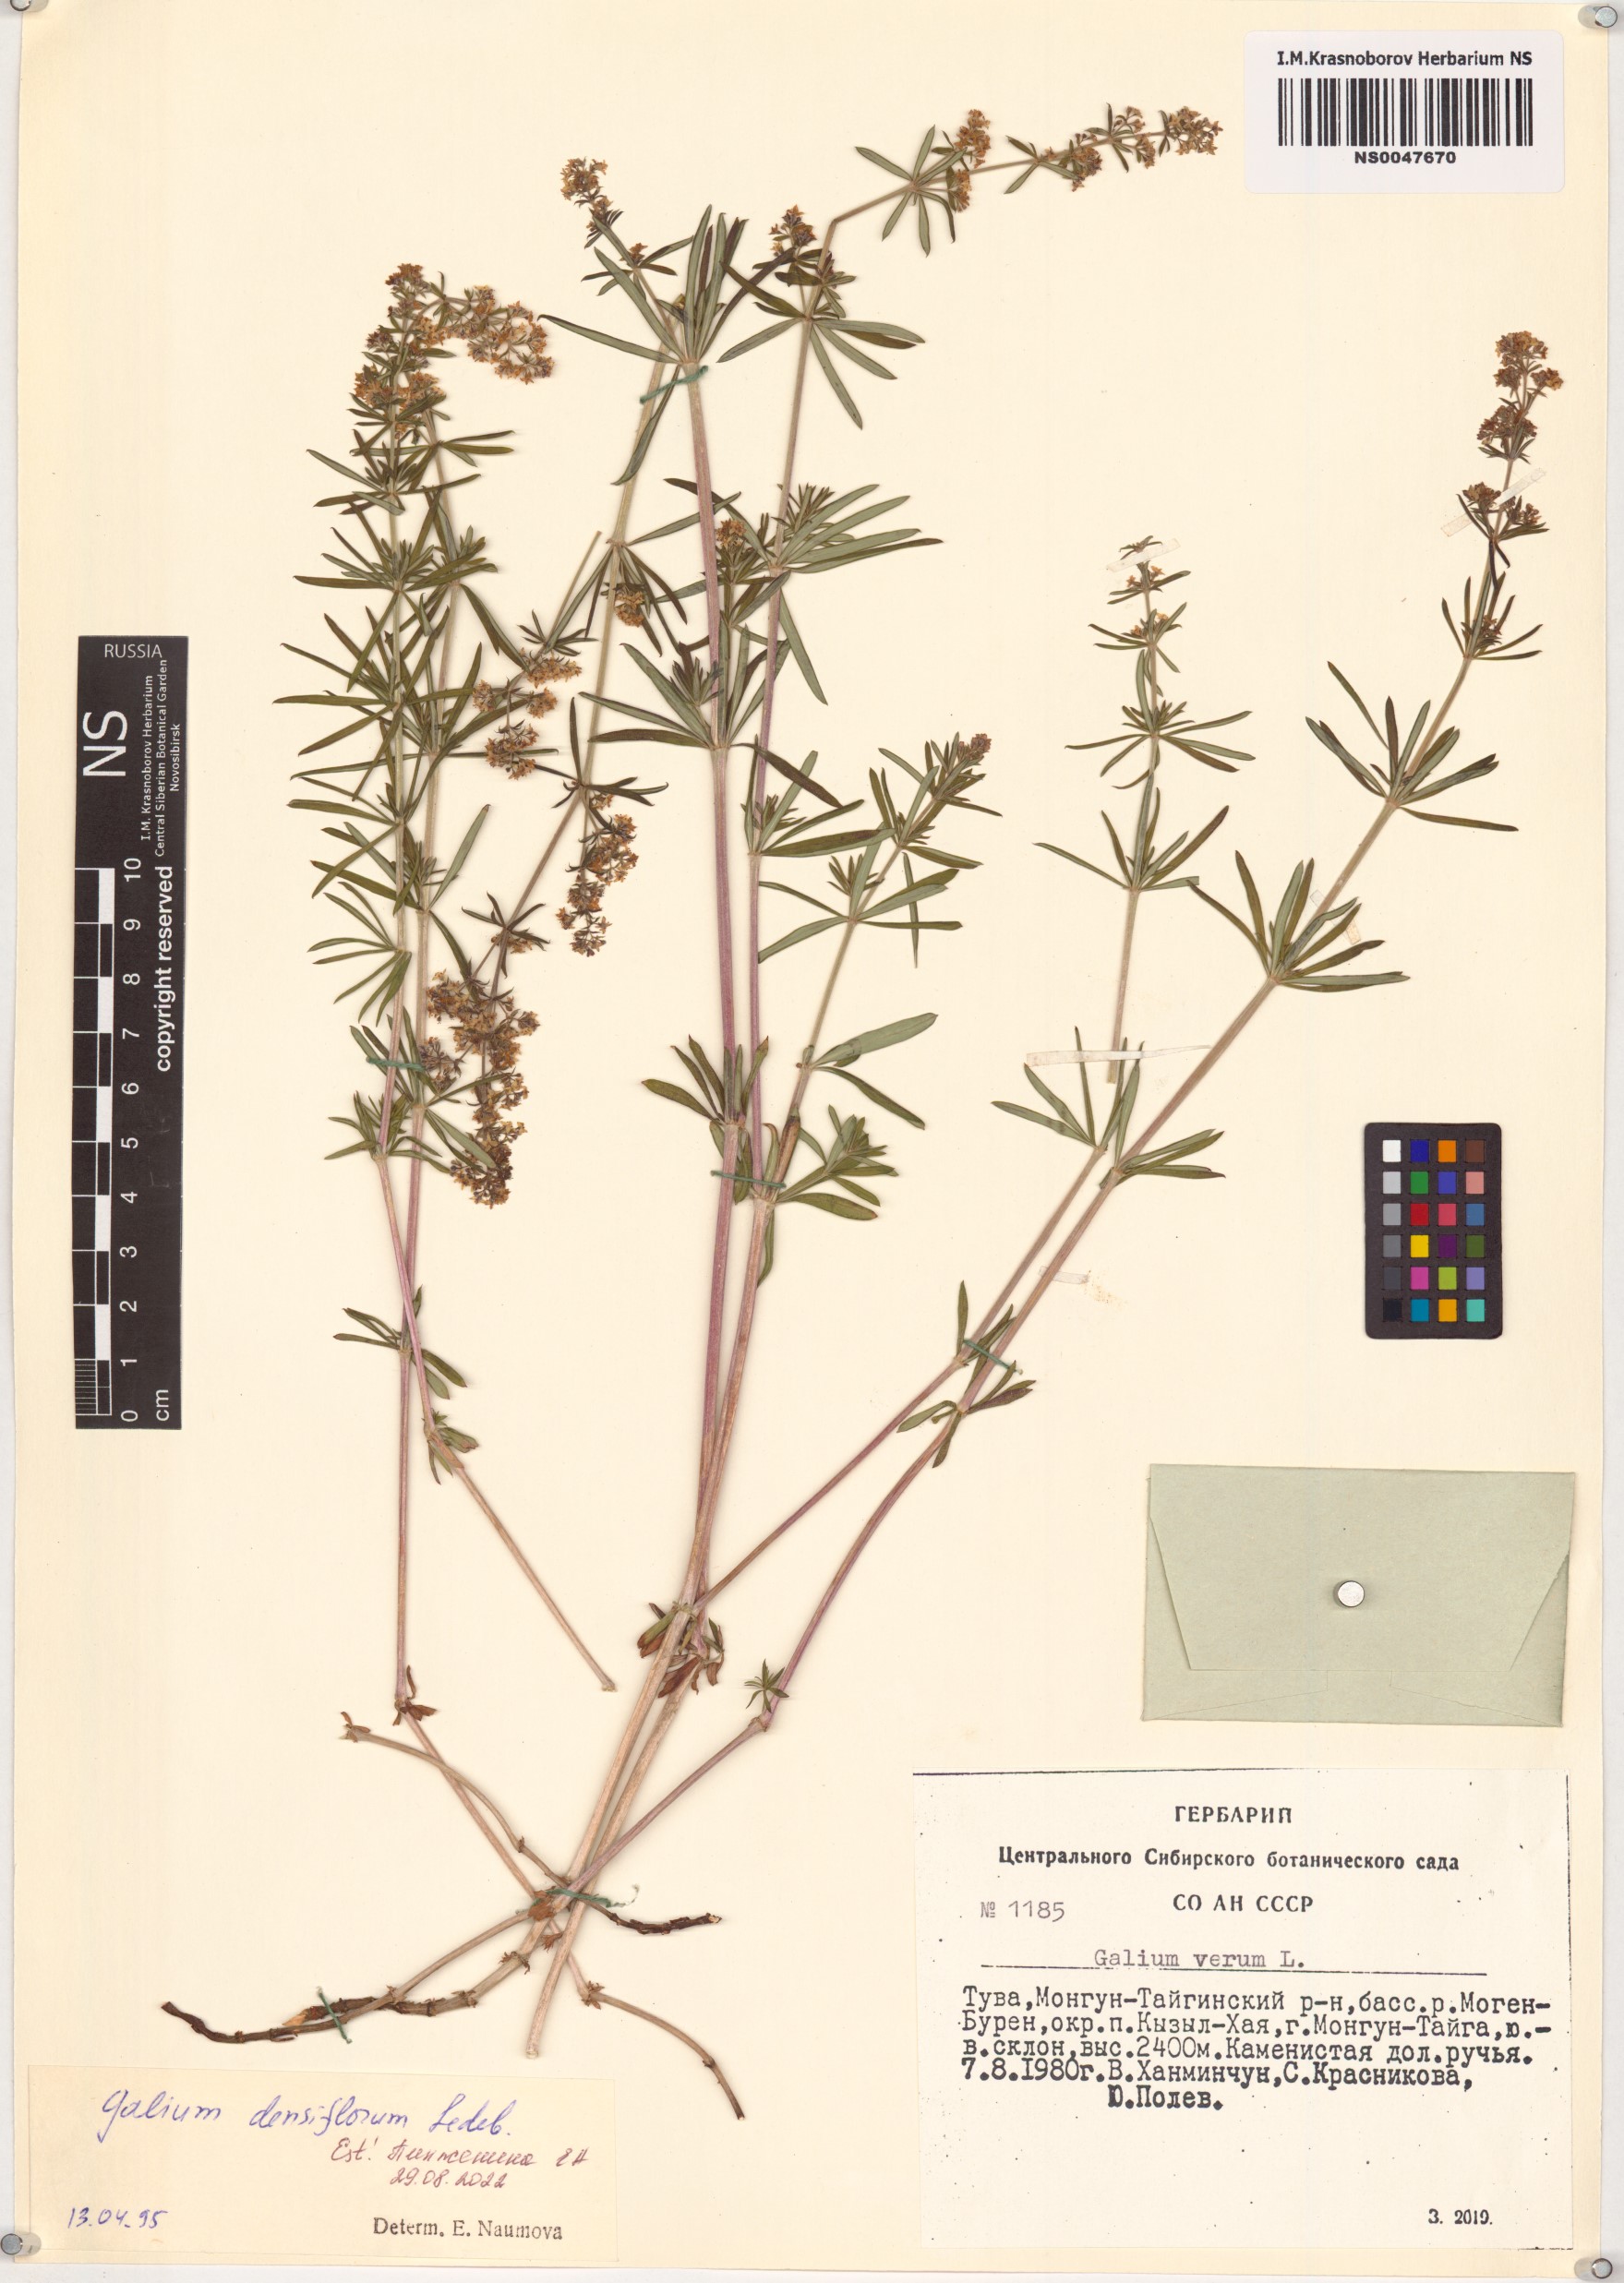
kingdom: Plantae
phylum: Tracheophyta
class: Magnoliopsida
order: Gentianales
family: Rubiaceae
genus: Galium
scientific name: Galium densiflorum
